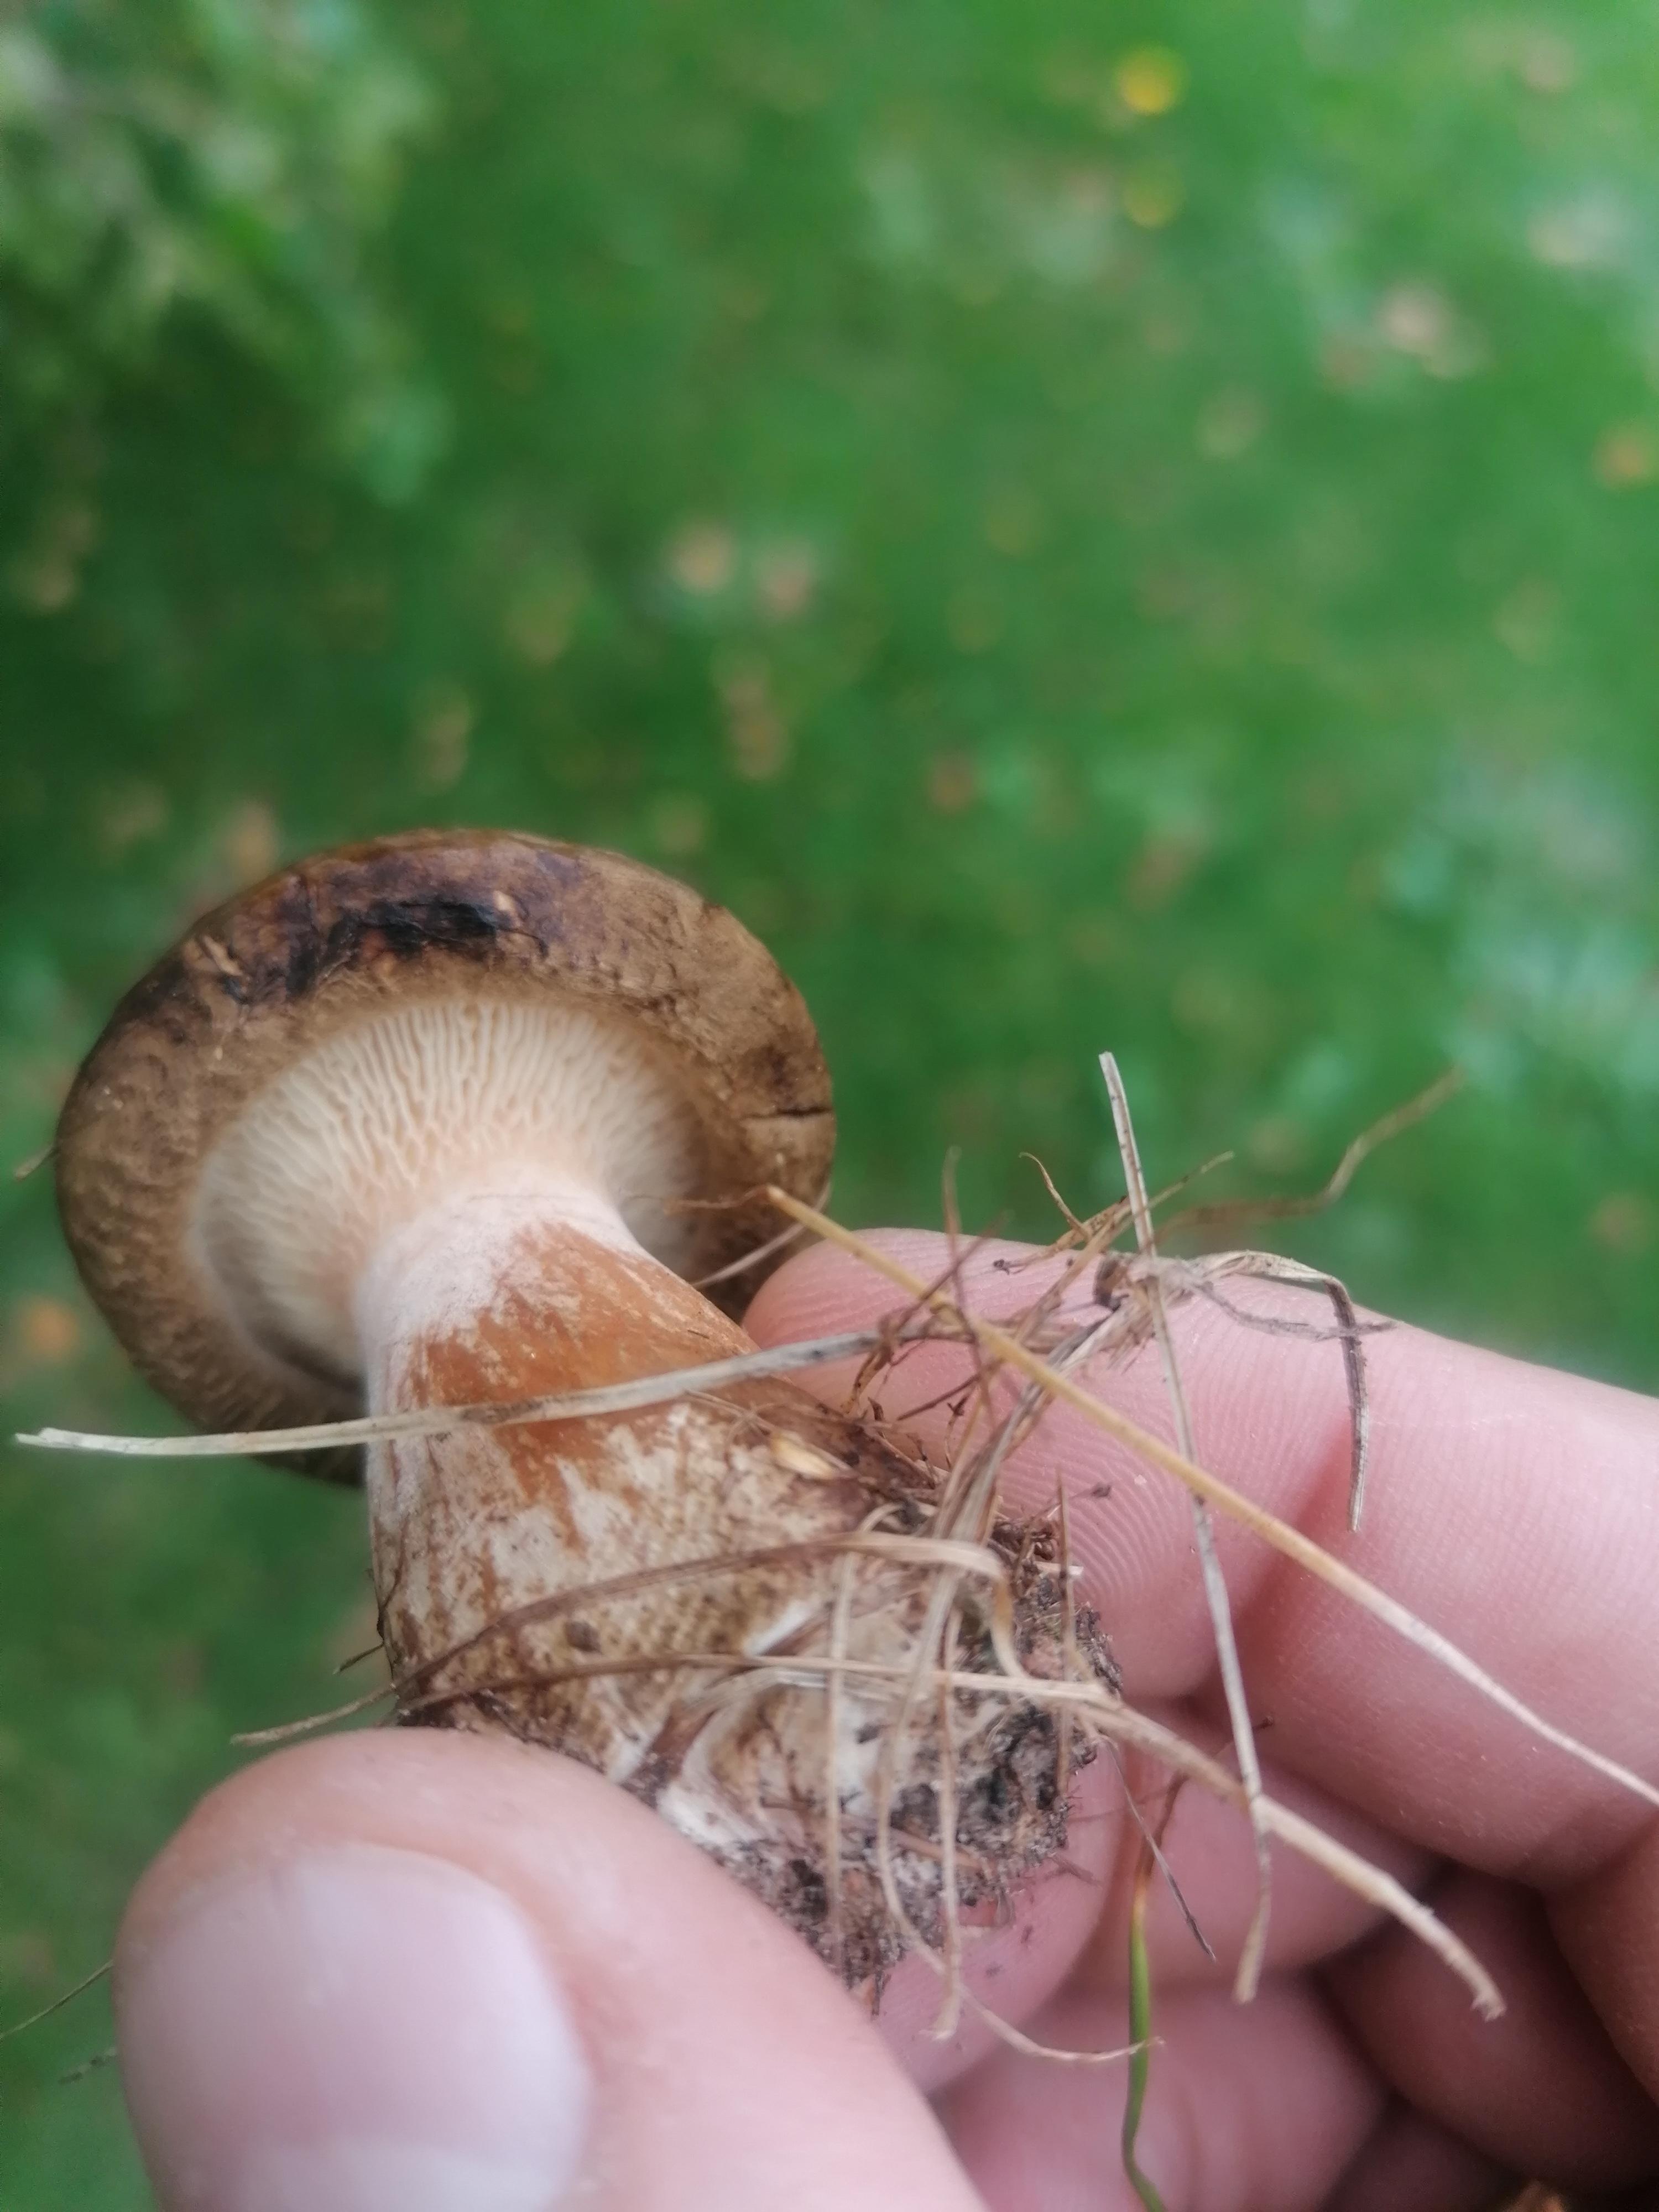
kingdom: Fungi
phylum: Basidiomycota
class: Agaricomycetes
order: Boletales
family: Paxillaceae
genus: Paxillus
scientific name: Paxillus
